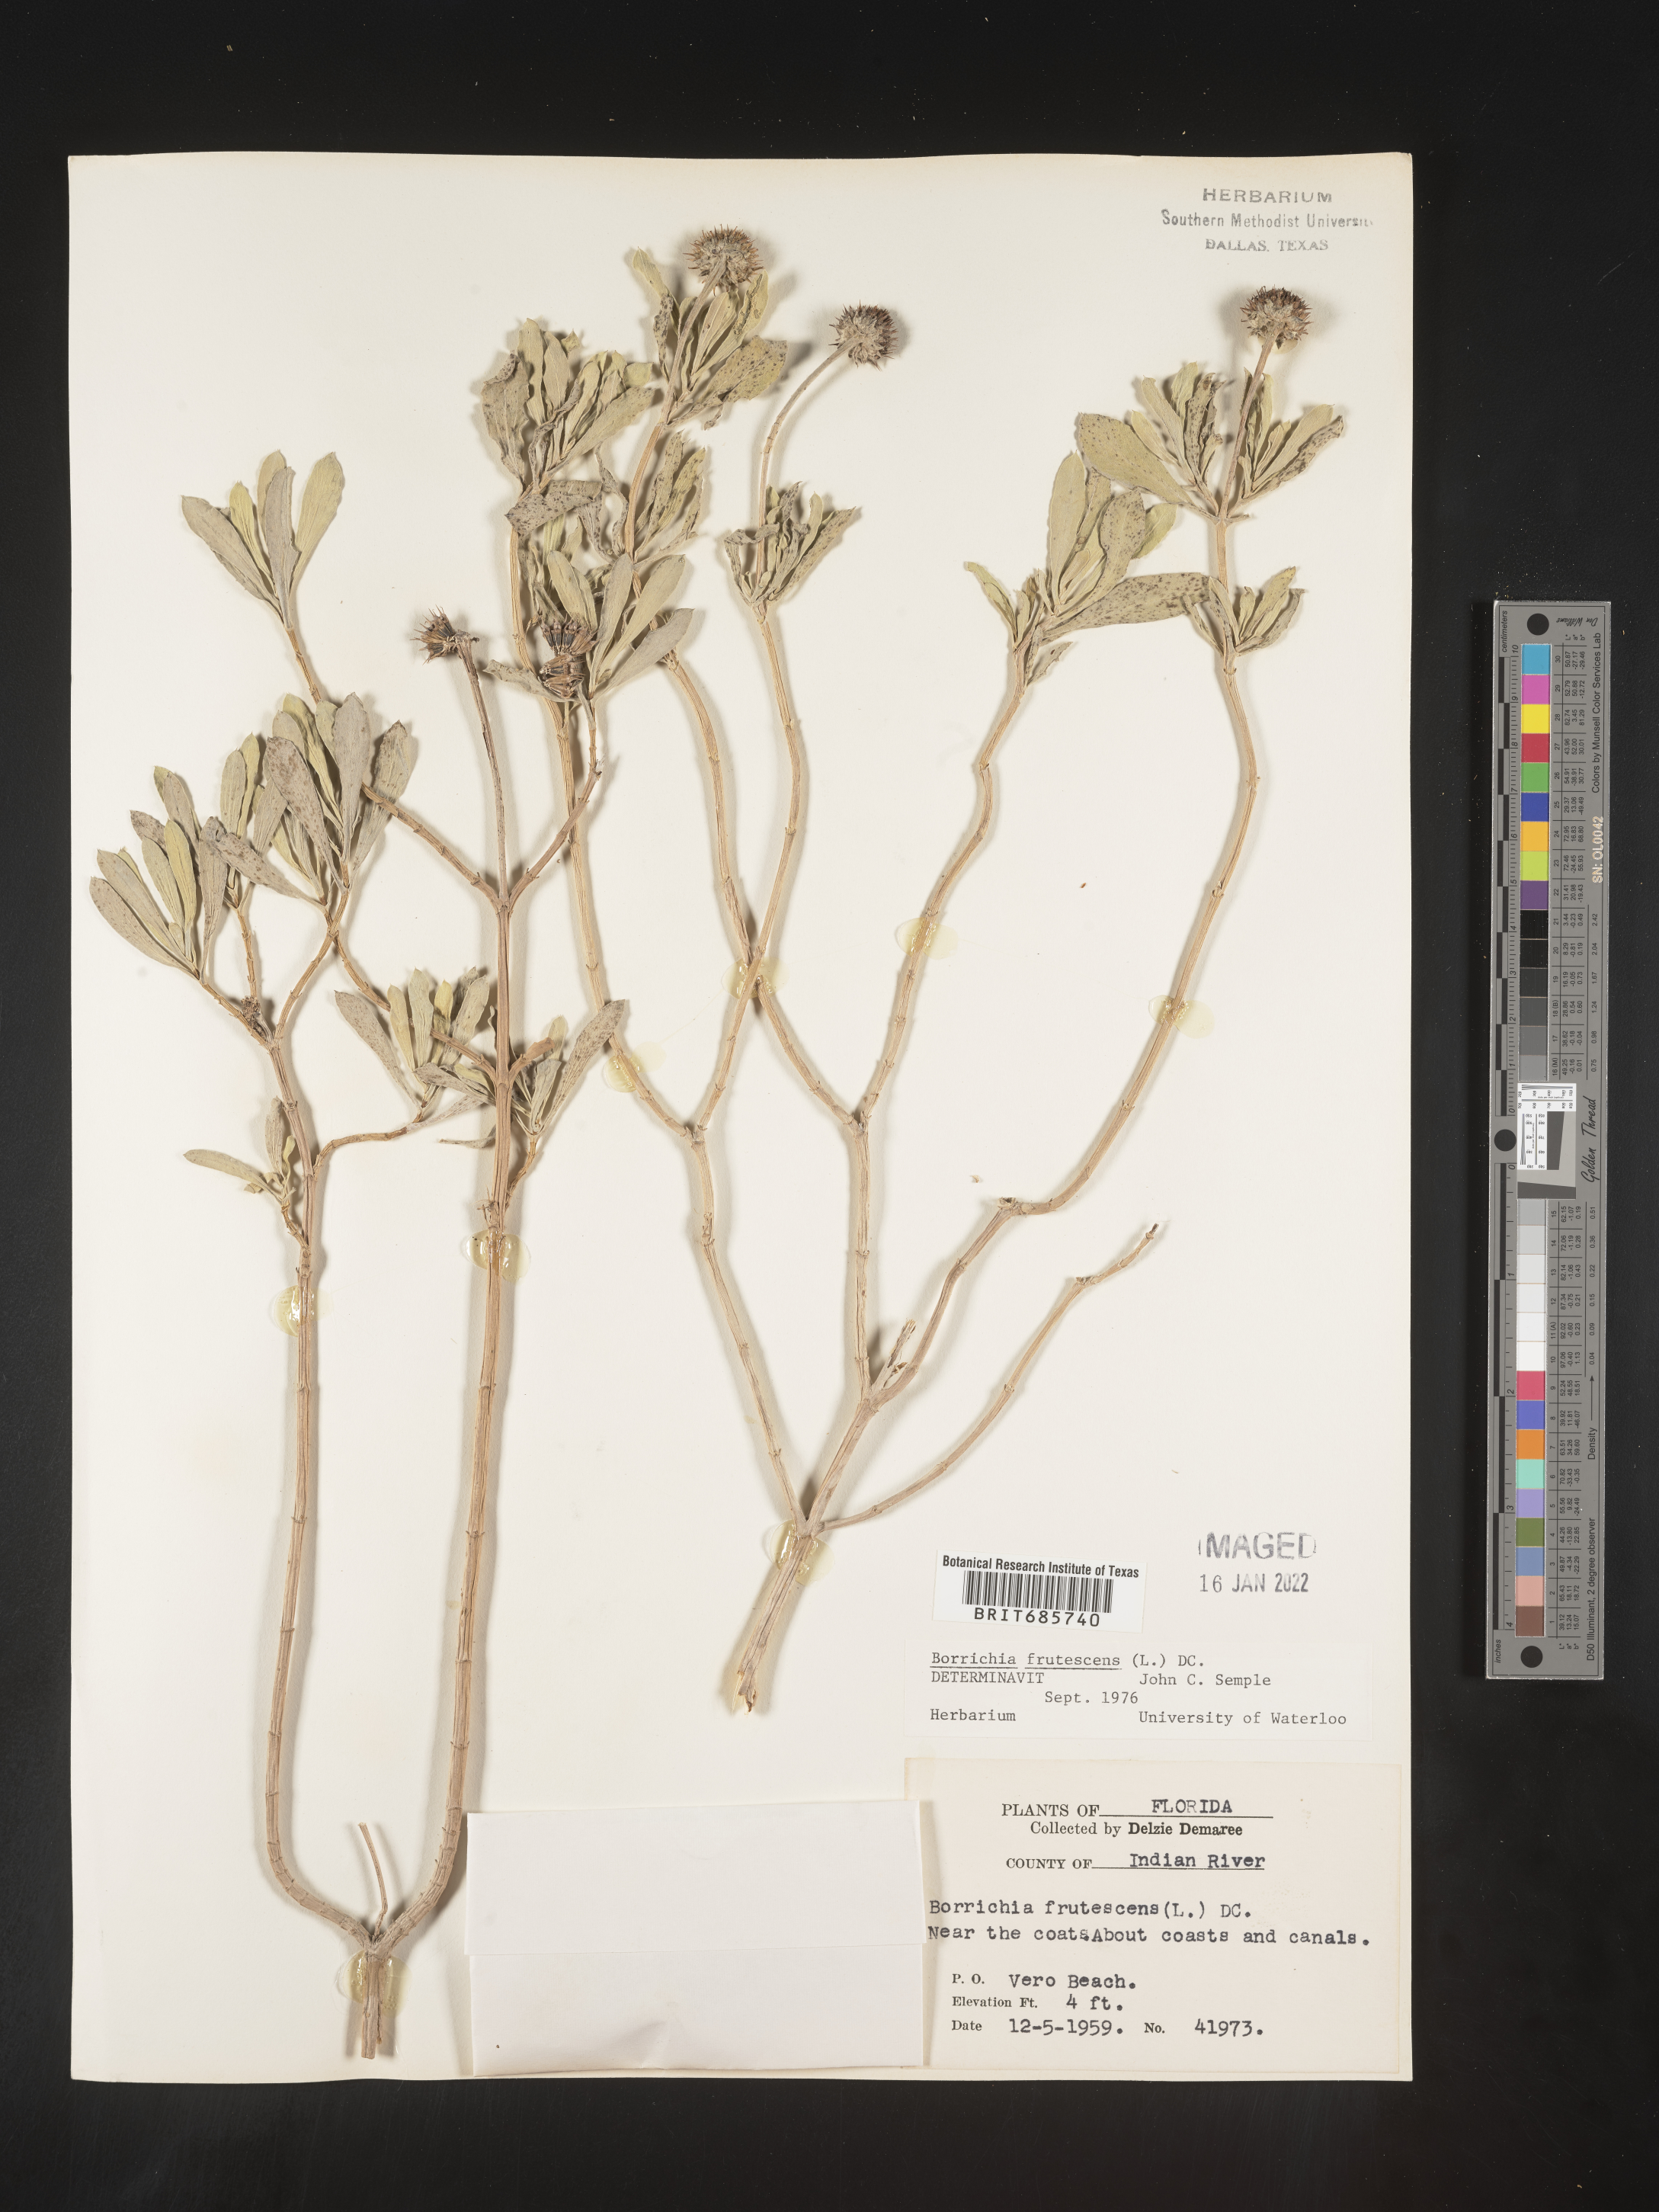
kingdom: Plantae
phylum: Tracheophyta
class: Magnoliopsida
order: Asterales
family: Asteraceae
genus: Borrichia
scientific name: Borrichia frutescens
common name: Sea oxeye
